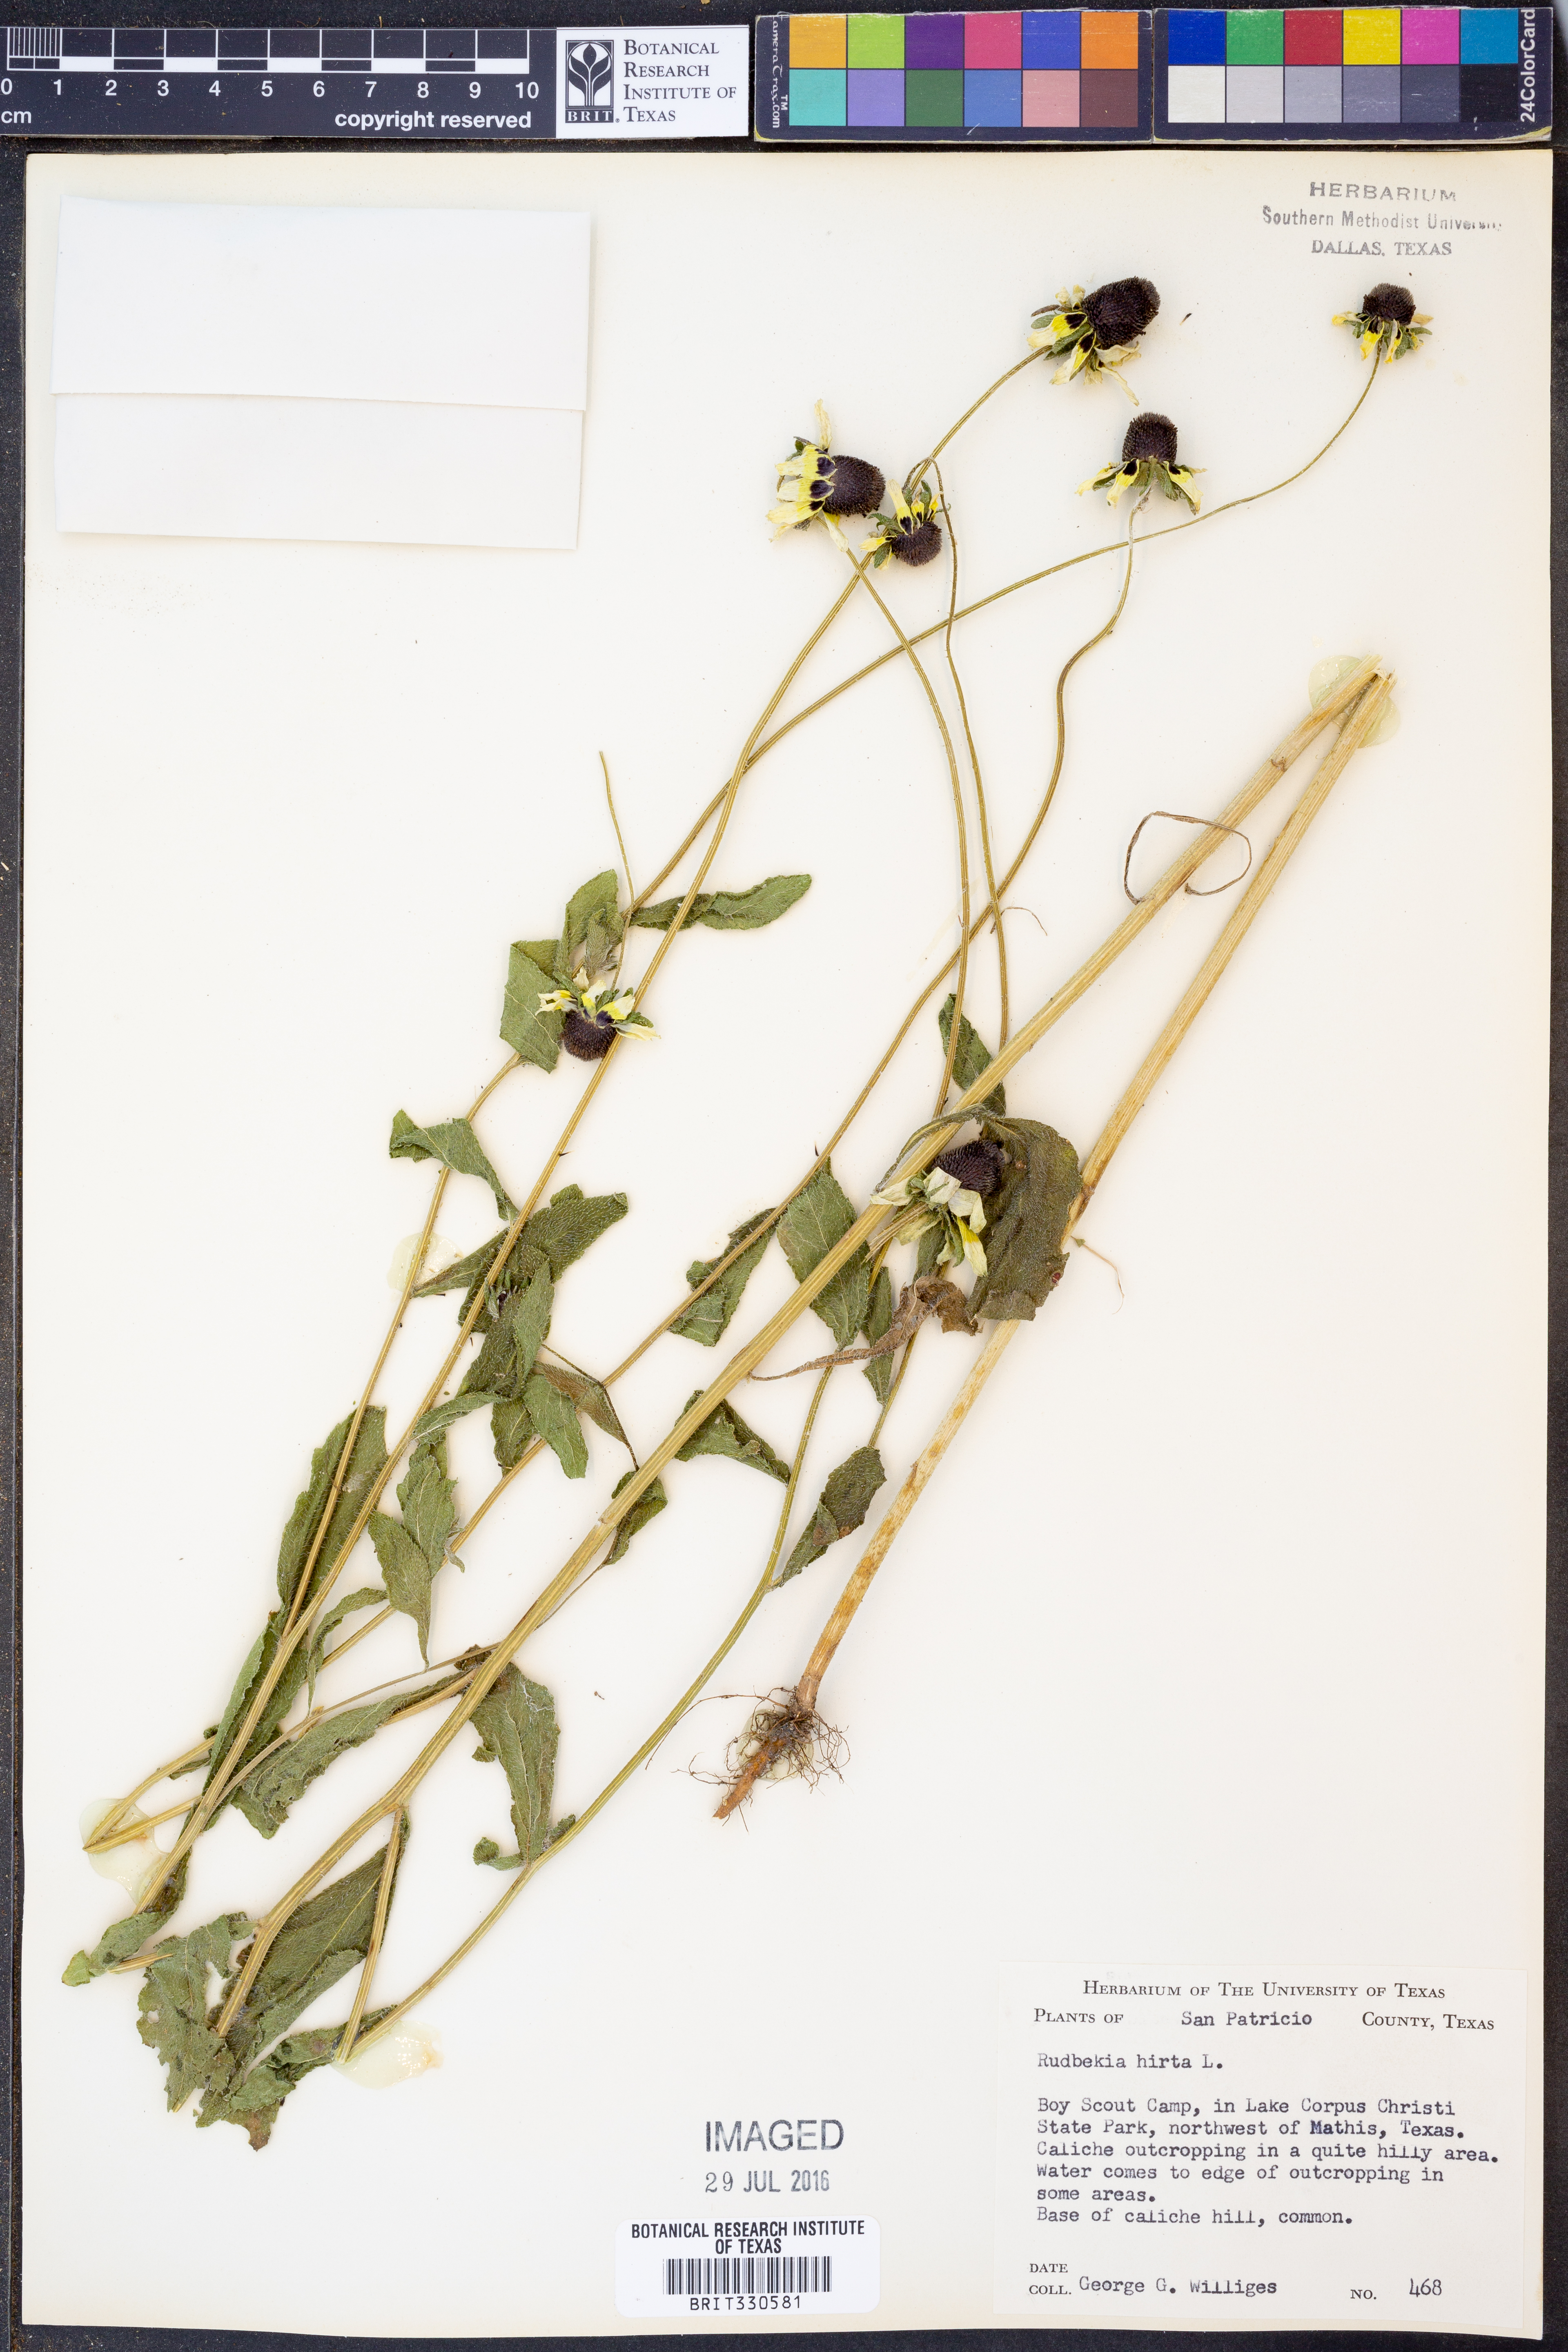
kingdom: Plantae
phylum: Tracheophyta
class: Magnoliopsida
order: Asterales
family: Asteraceae
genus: Rudbeckia
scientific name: Rudbeckia hirta
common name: Black-eyed-susan
